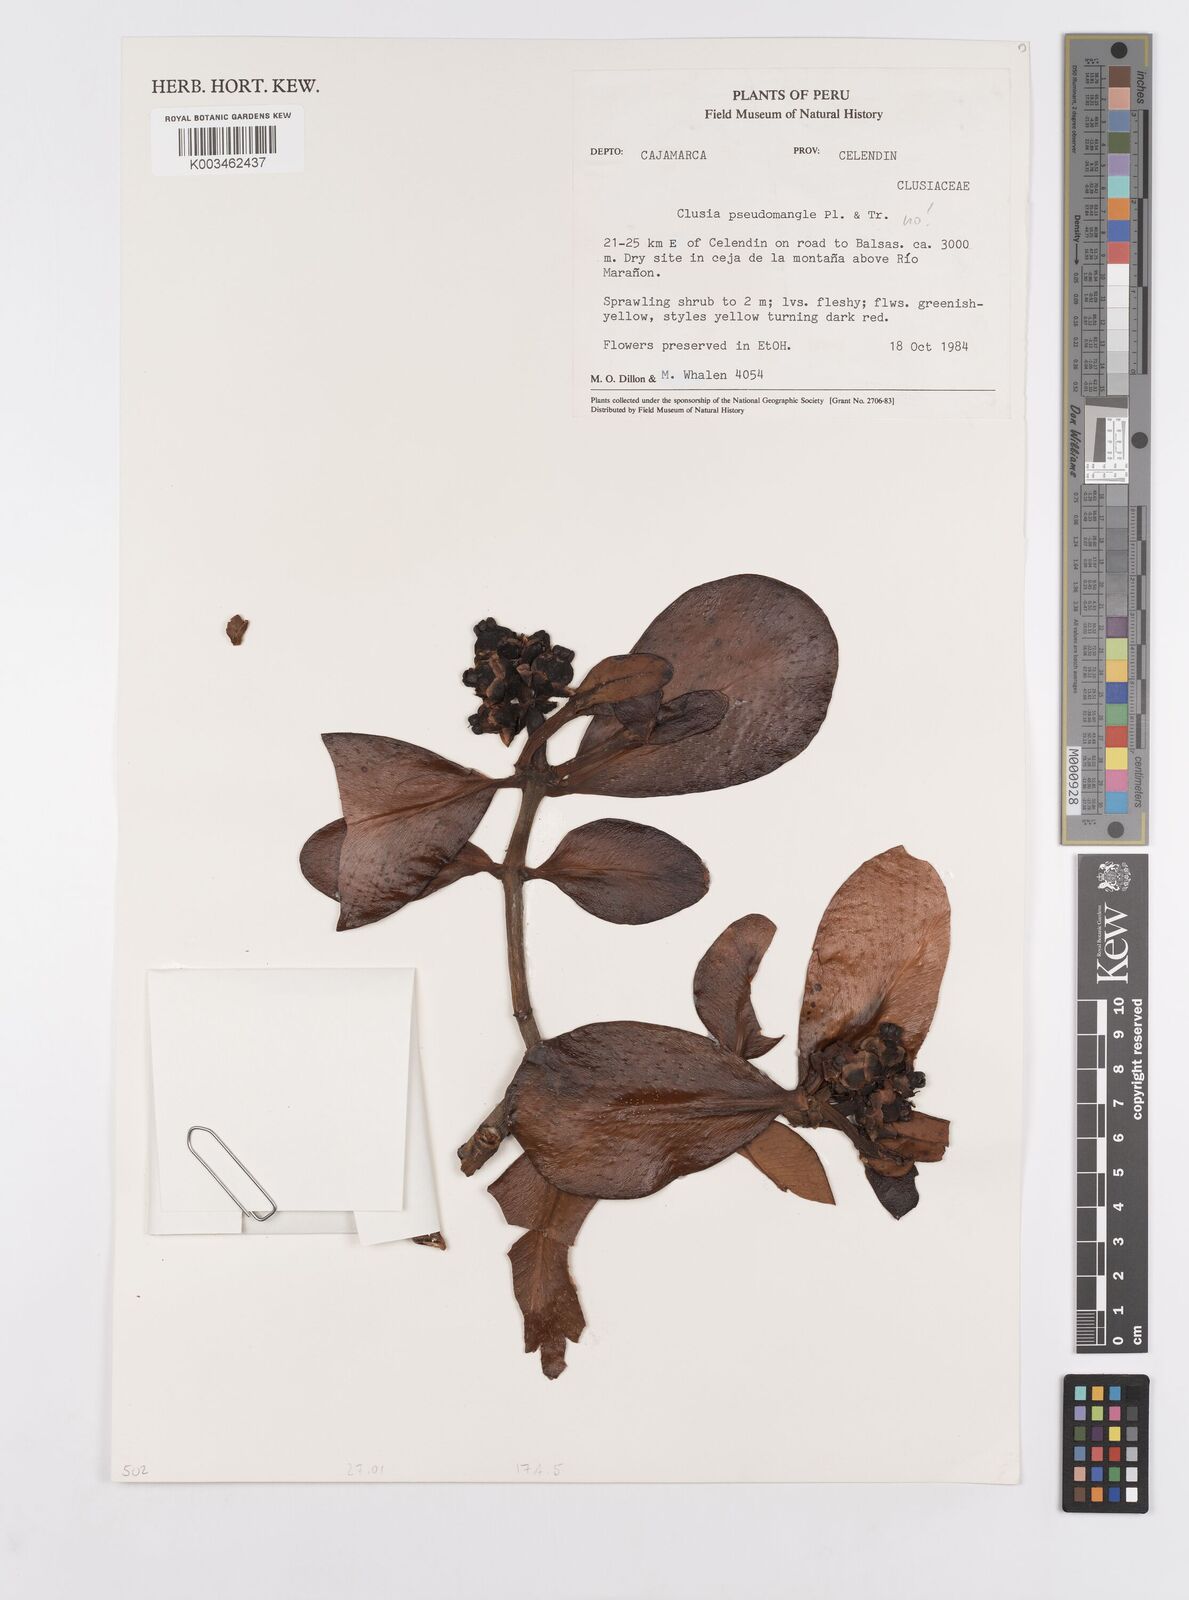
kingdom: Plantae
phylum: Tracheophyta
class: Magnoliopsida
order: Malpighiales
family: Clusiaceae
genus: Clusia
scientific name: Clusia pseudomangle
